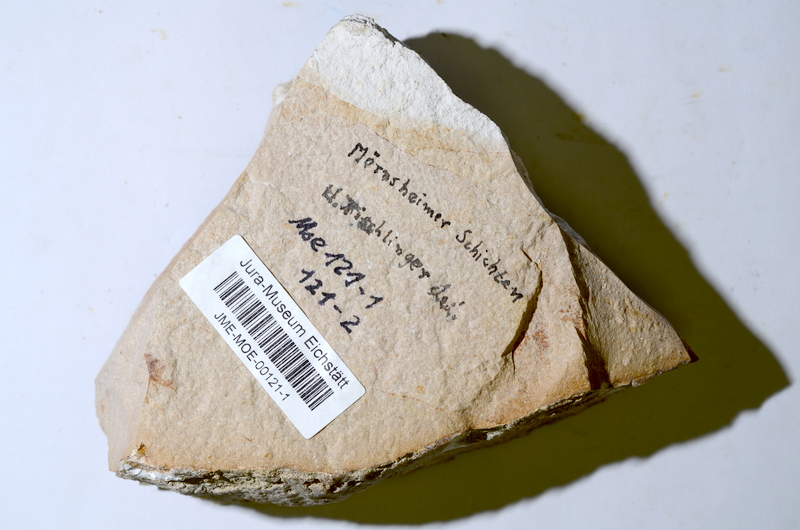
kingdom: Animalia
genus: Piscis
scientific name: Piscis
